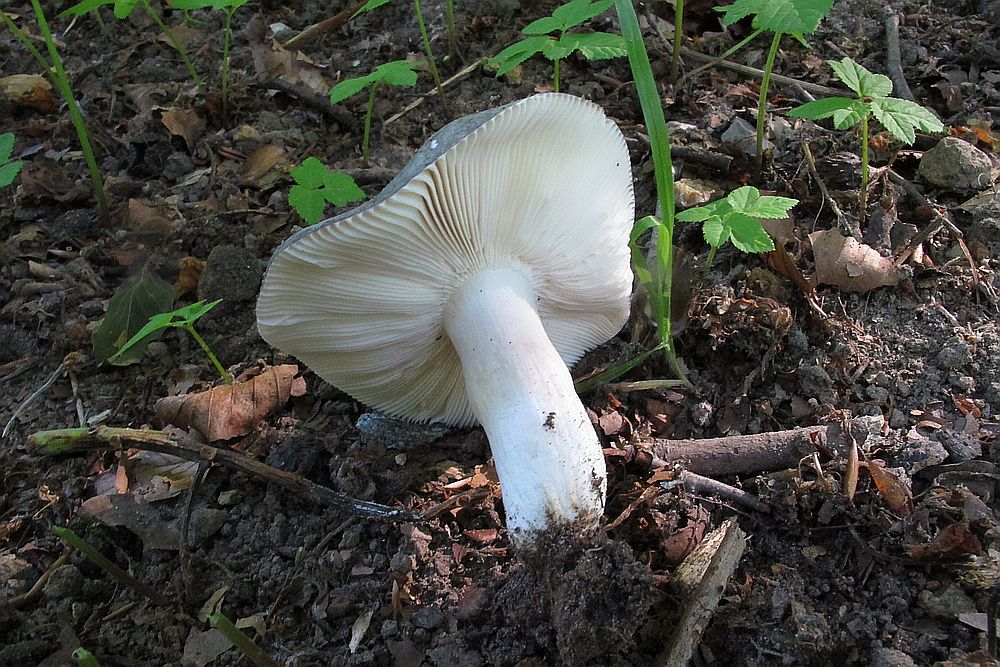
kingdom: Fungi
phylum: Basidiomycota
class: Agaricomycetes
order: Russulales
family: Russulaceae
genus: Russula
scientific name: Russula cyanoxantha
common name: broget skørhat
